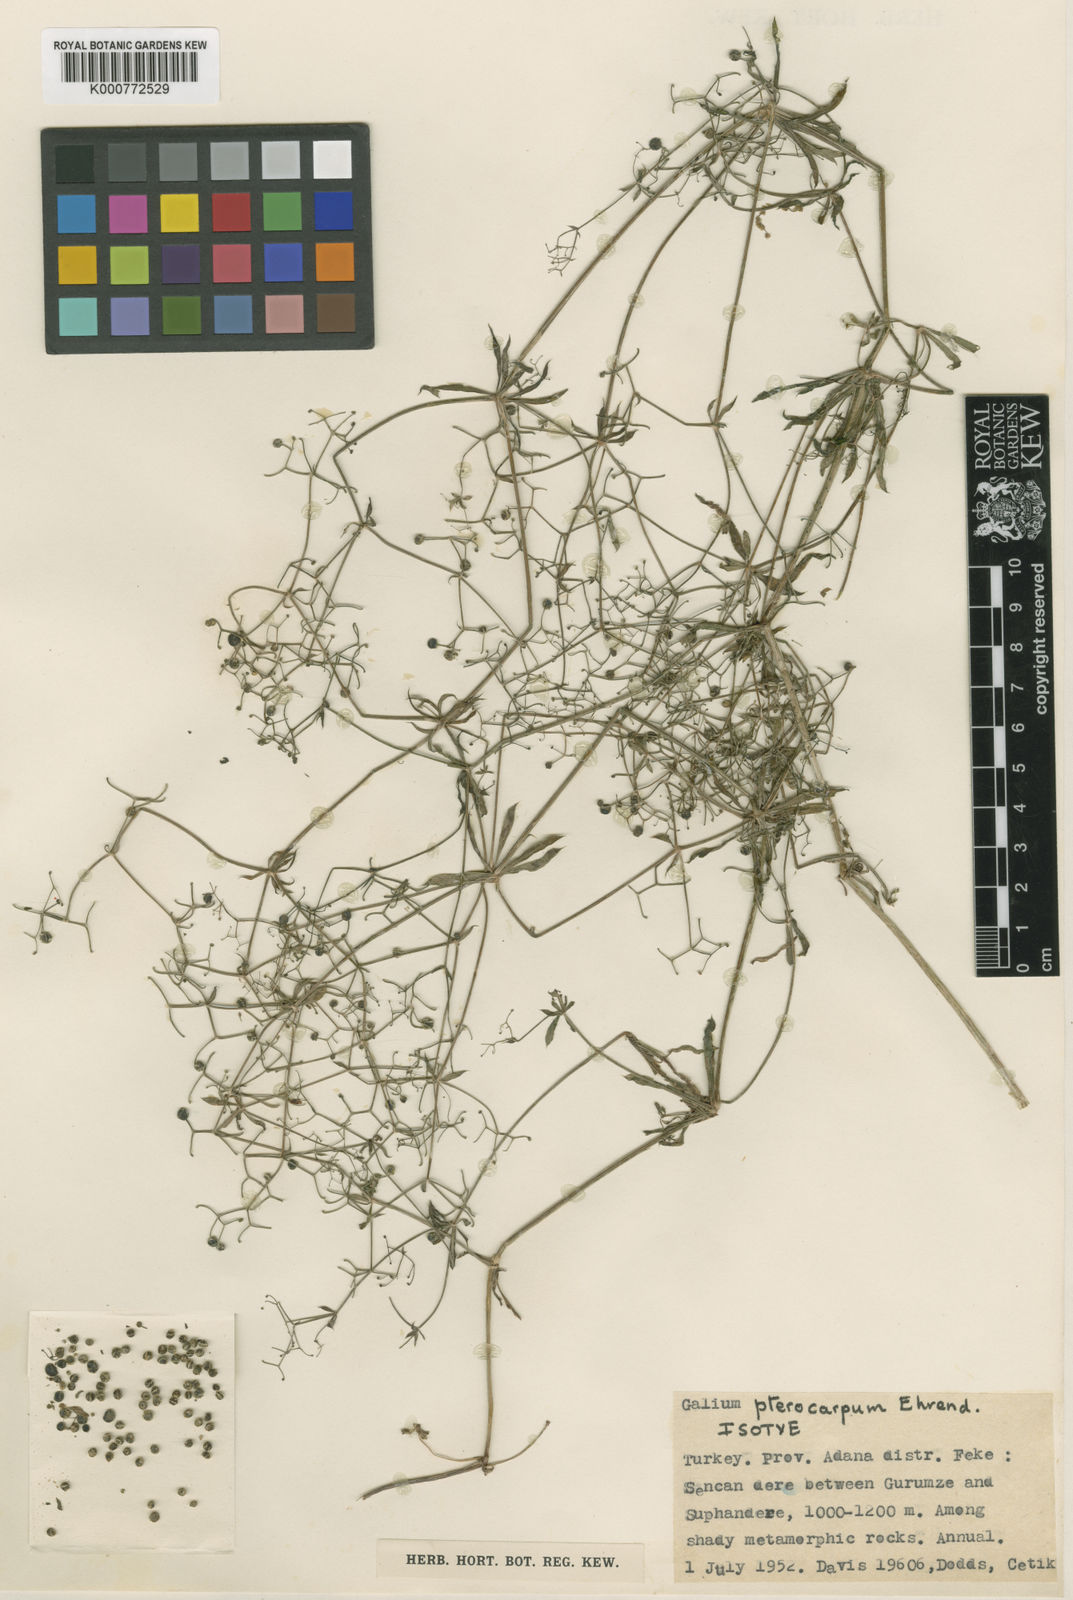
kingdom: Plantae
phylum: Tracheophyta
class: Magnoliopsida
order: Gentianales
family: Rubiaceae
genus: Galium
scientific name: Galium pterocarpum
